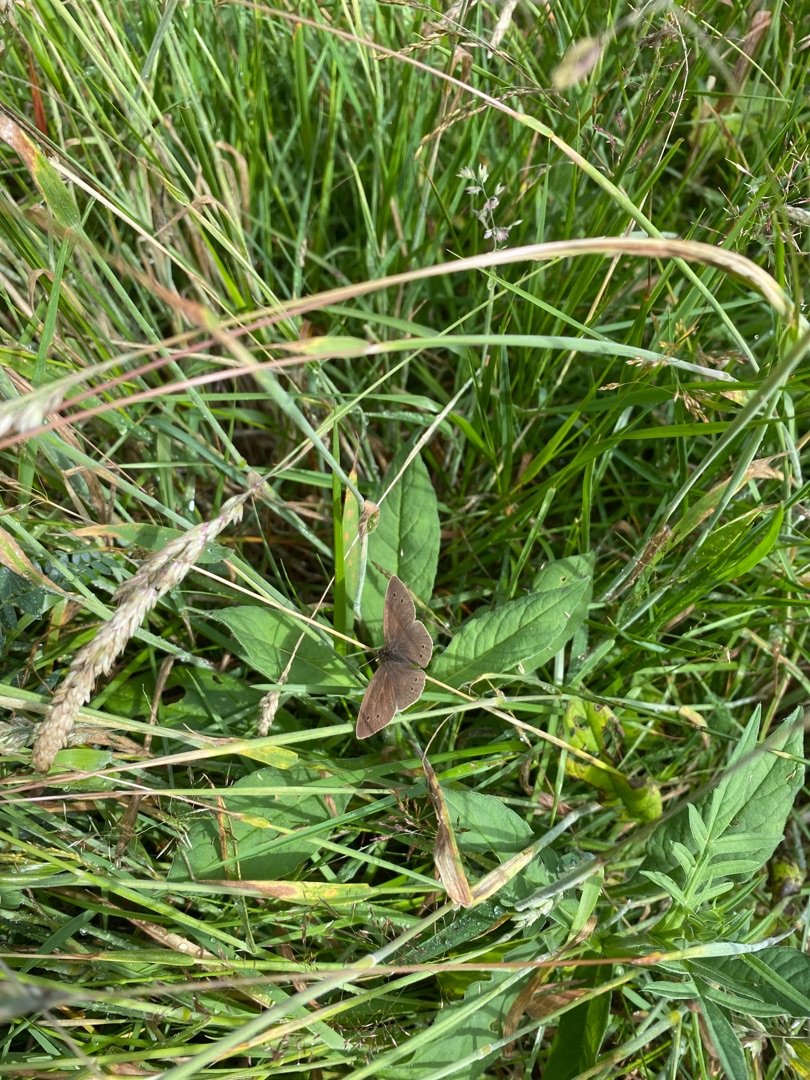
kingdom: Animalia
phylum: Arthropoda
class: Insecta
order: Lepidoptera
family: Nymphalidae
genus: Aphantopus
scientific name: Aphantopus hyperantus
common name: Engrandøje
